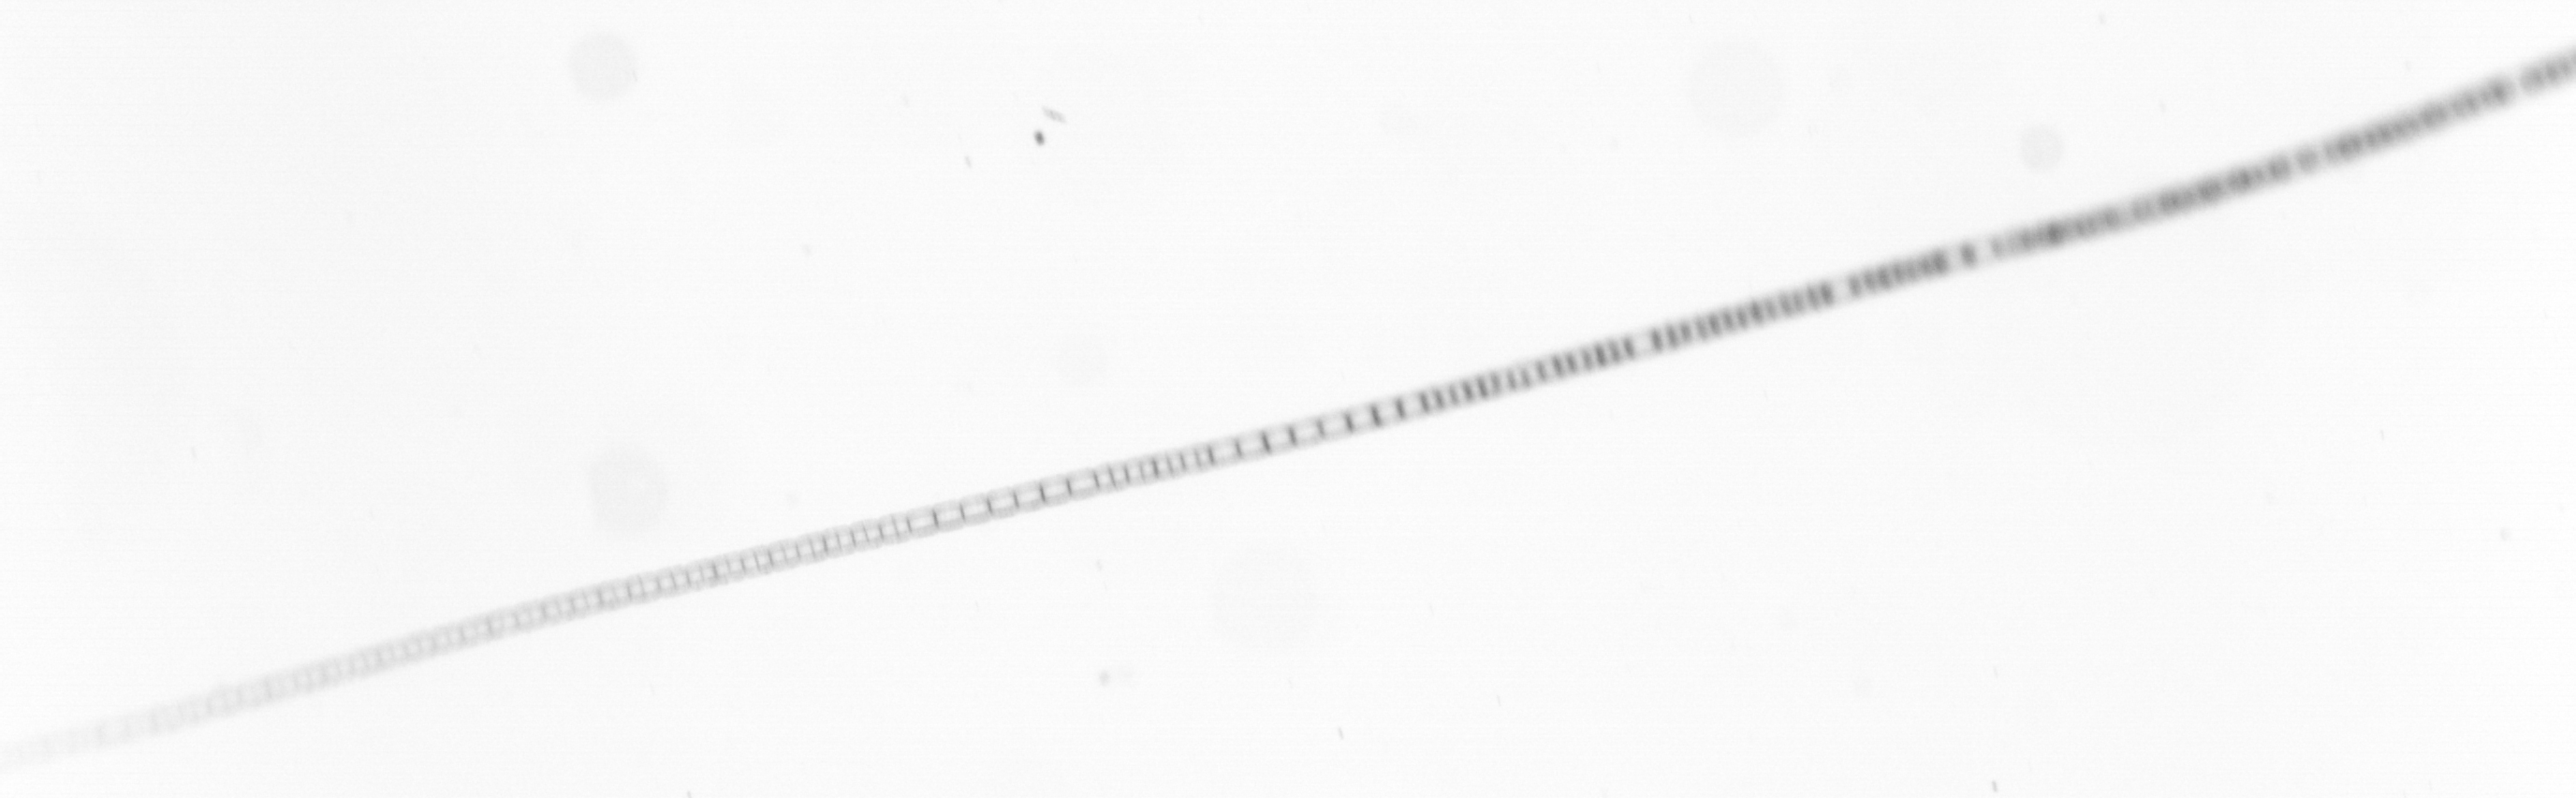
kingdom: Chromista
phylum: Ochrophyta
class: Bacillariophyceae
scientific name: Bacillariophyceae
